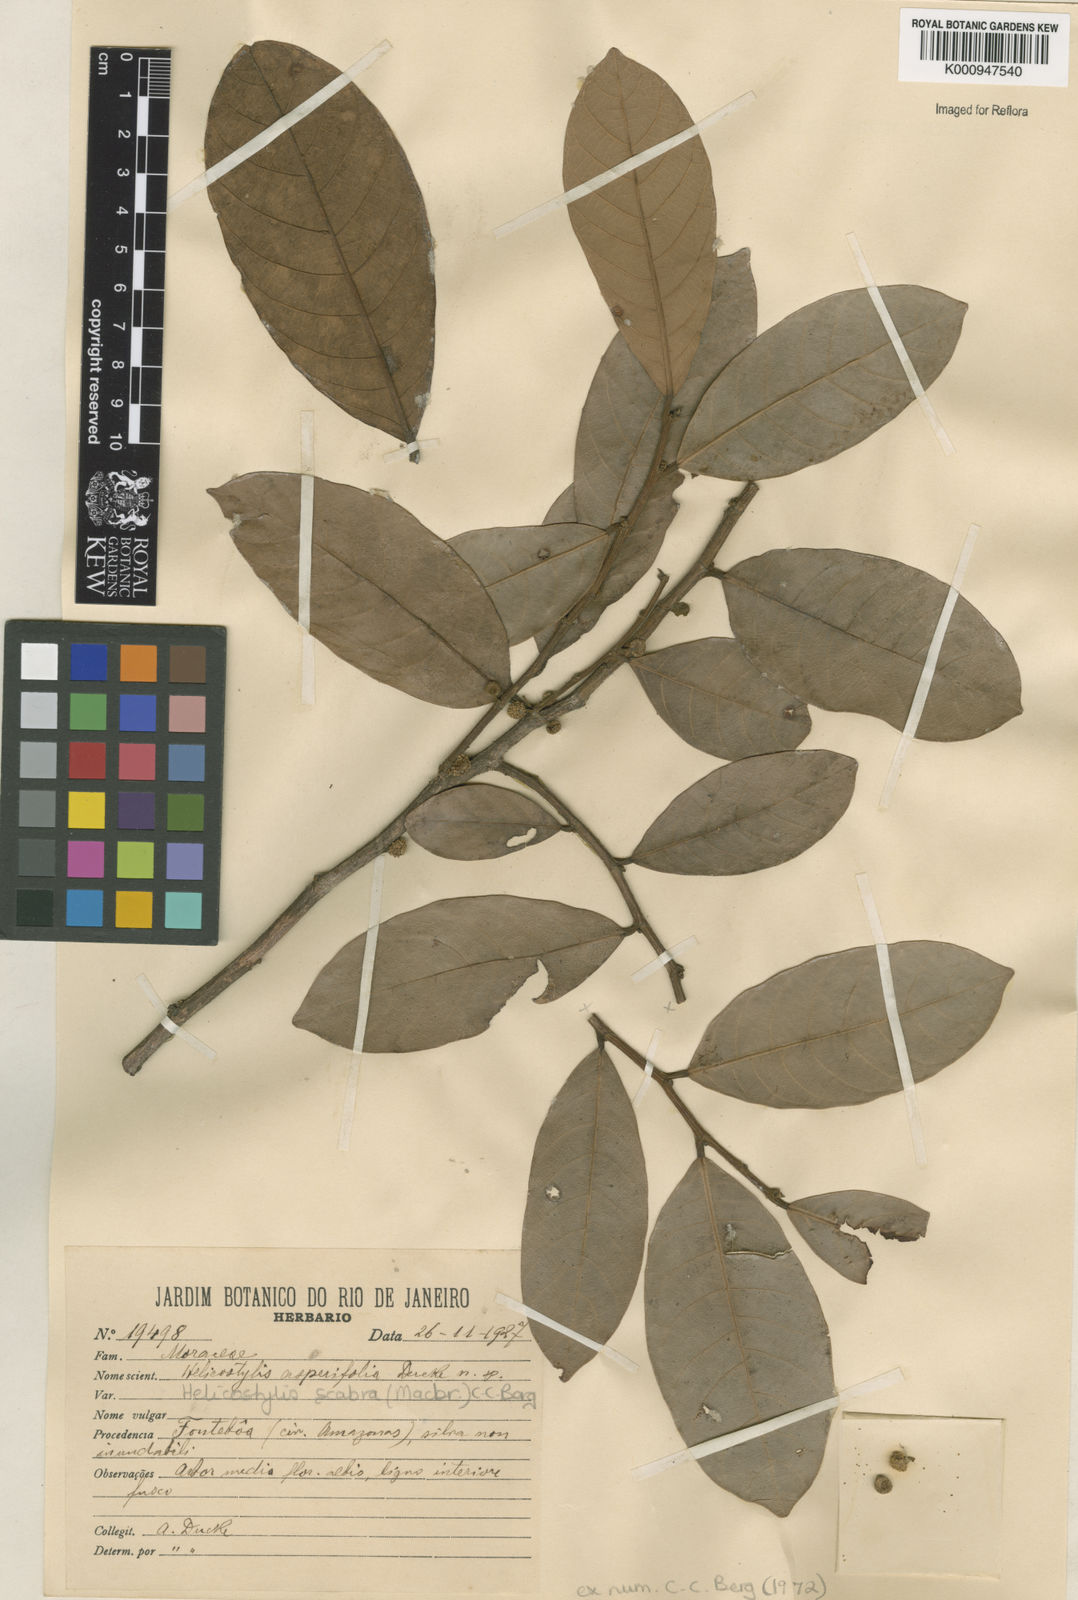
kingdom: Plantae
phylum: Tracheophyta
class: Magnoliopsida
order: Rosales
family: Moraceae
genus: Helicostylis
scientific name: Helicostylis scabra
